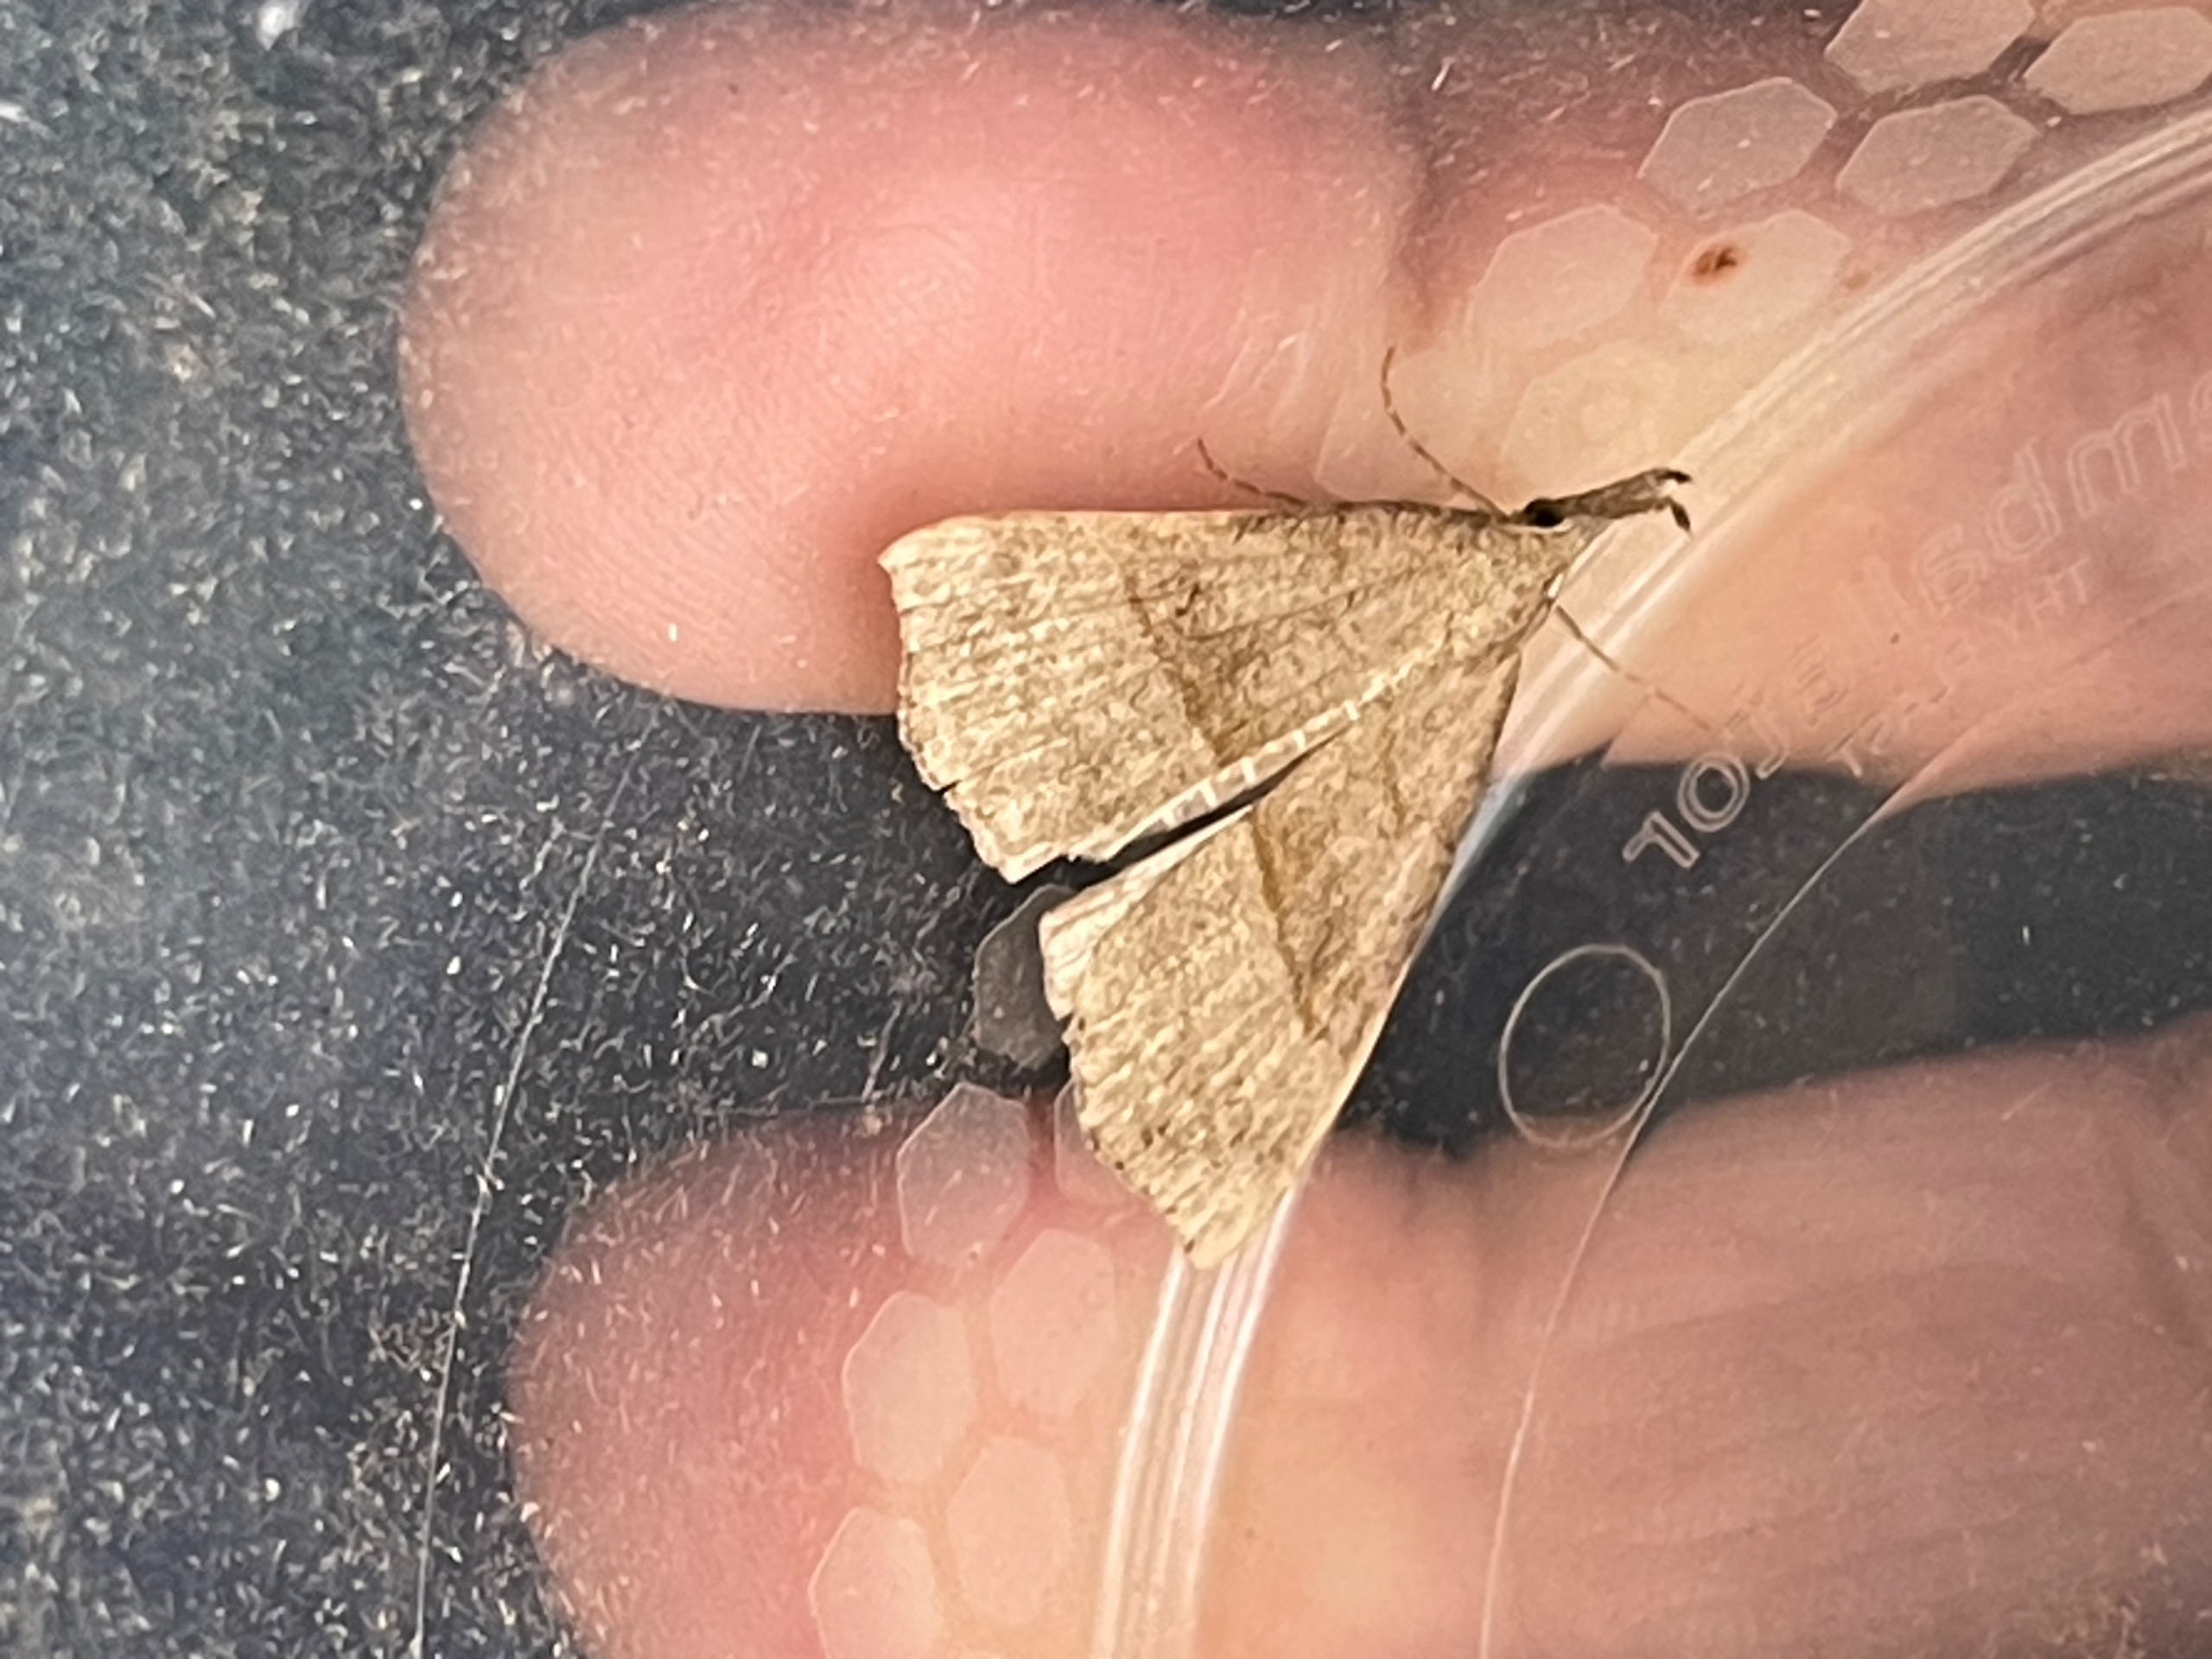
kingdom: Animalia
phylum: Arthropoda
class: Insecta
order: Lepidoptera
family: Erebidae
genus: Hypena
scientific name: Hypena proboscidalis
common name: Snudeugle
